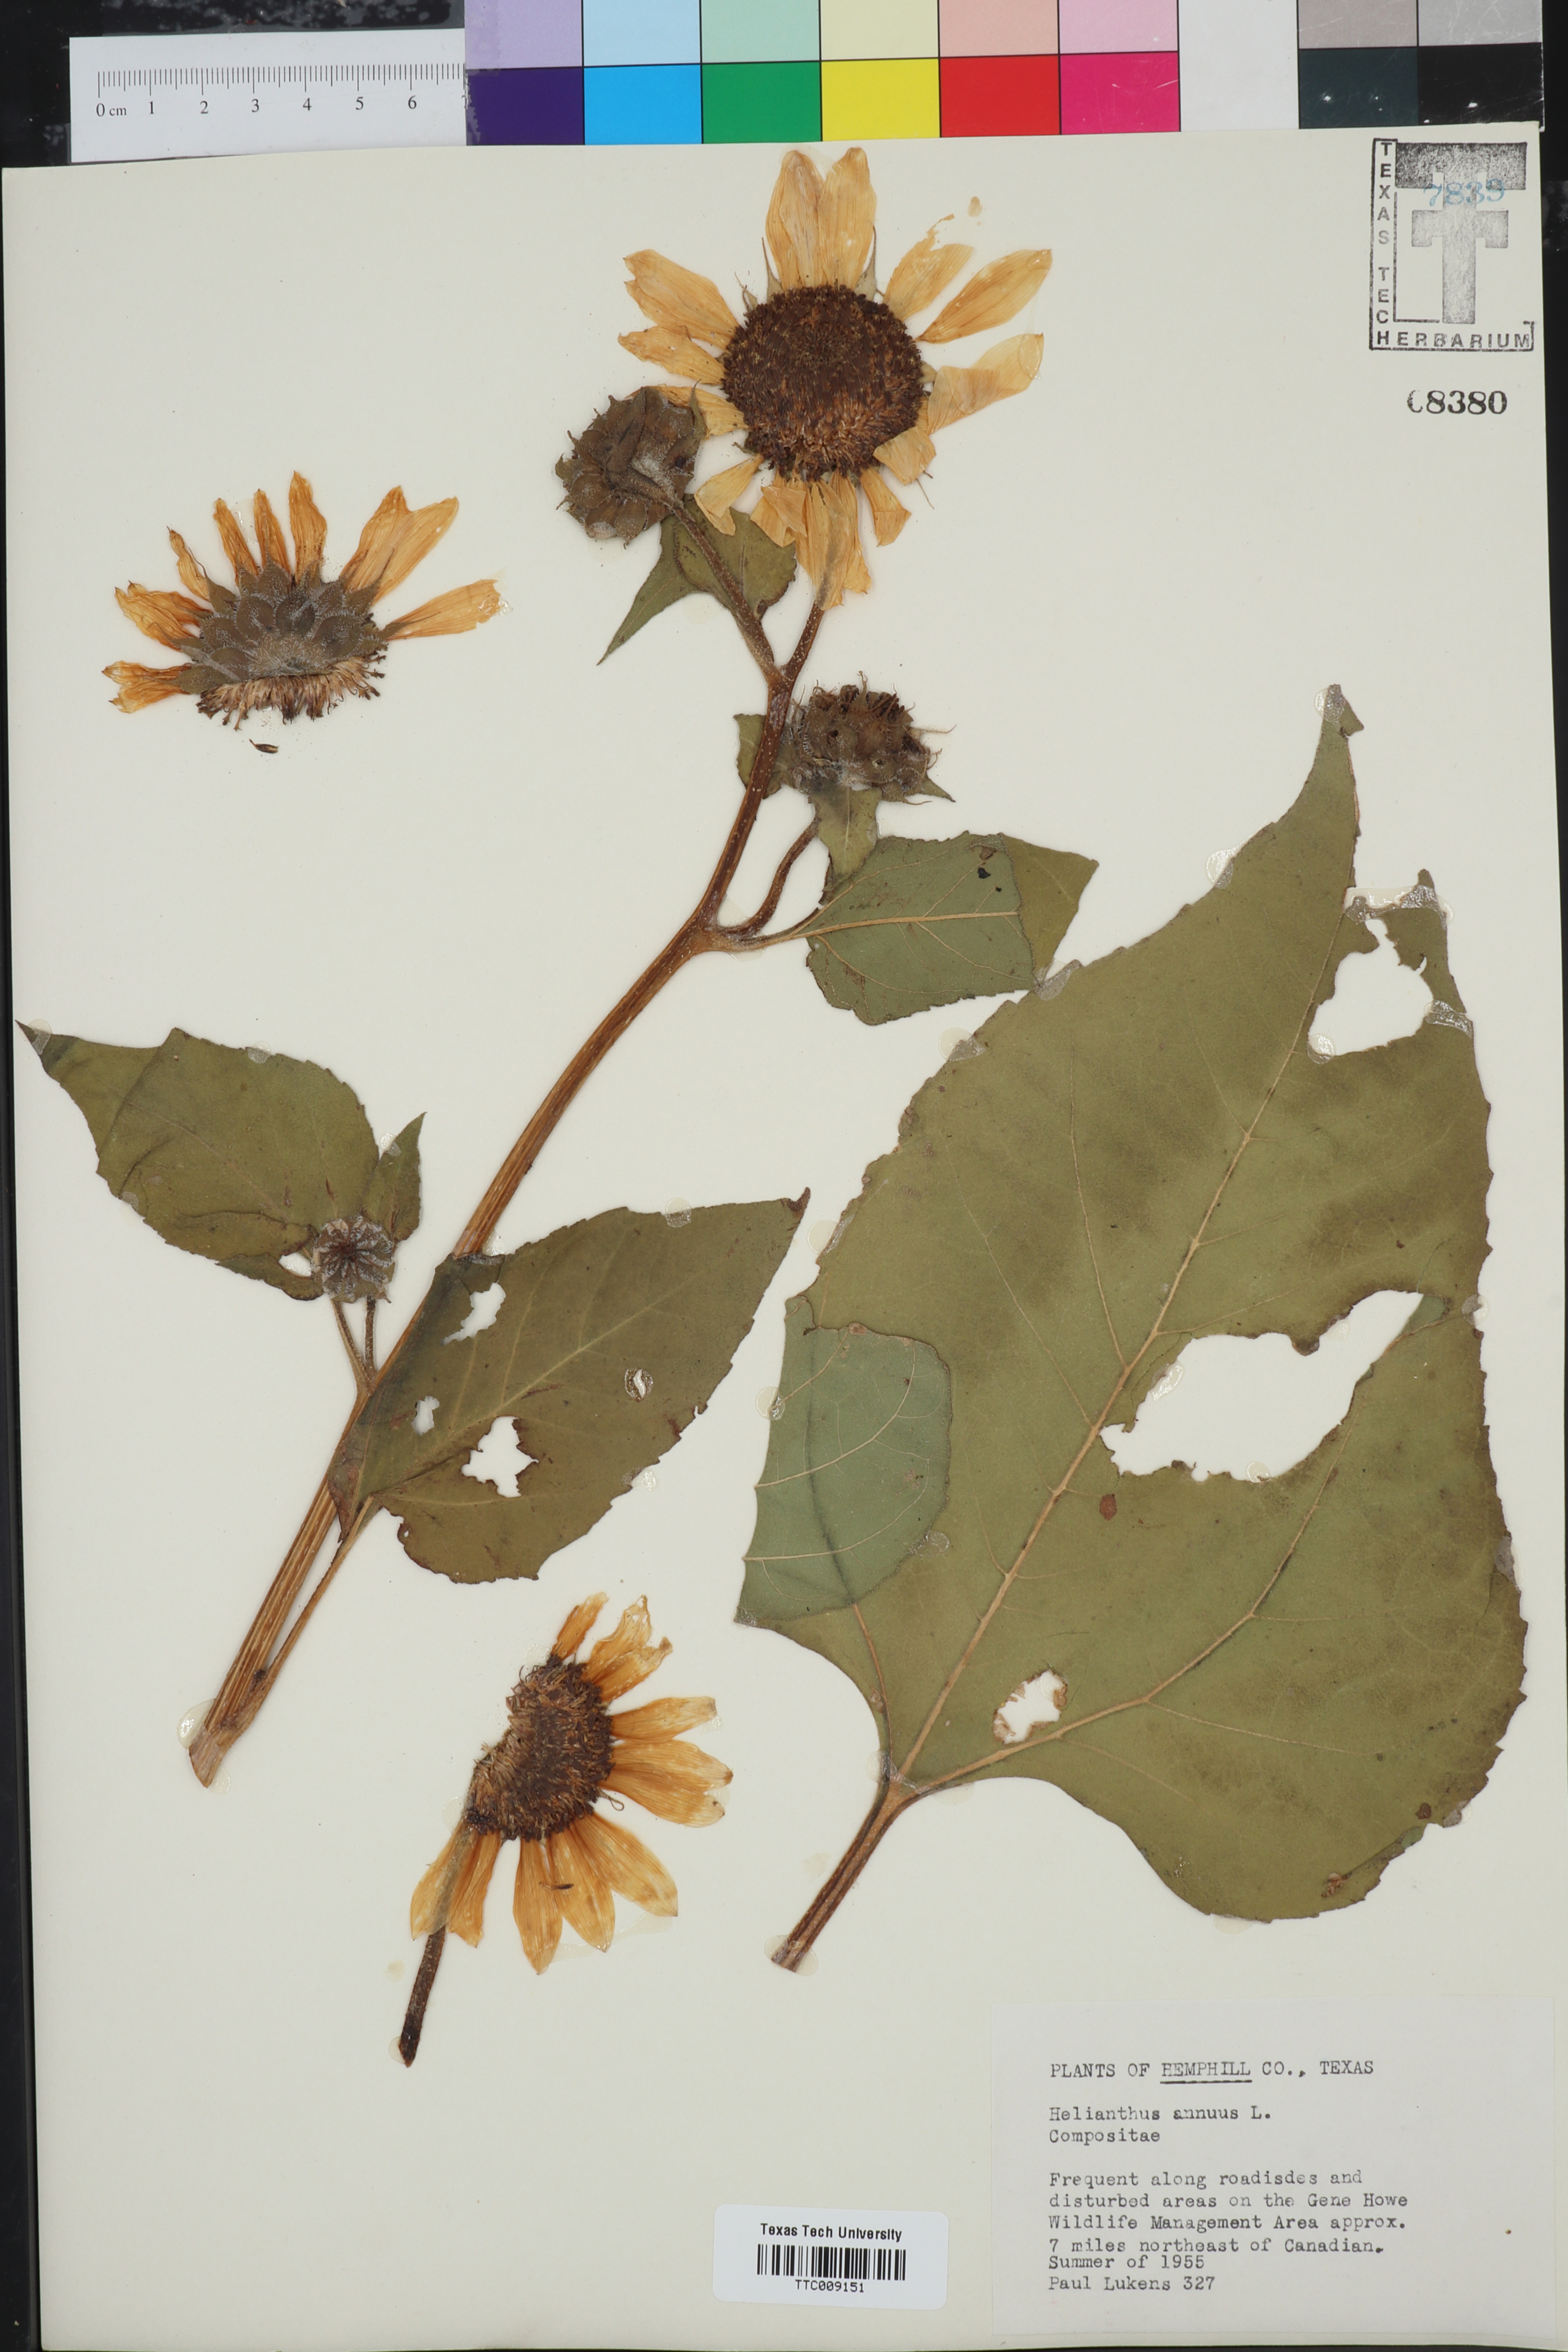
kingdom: Plantae
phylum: Tracheophyta
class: Magnoliopsida
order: Asterales
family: Asteraceae
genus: Helianthus
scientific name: Helianthus annuus
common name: Sunflower
